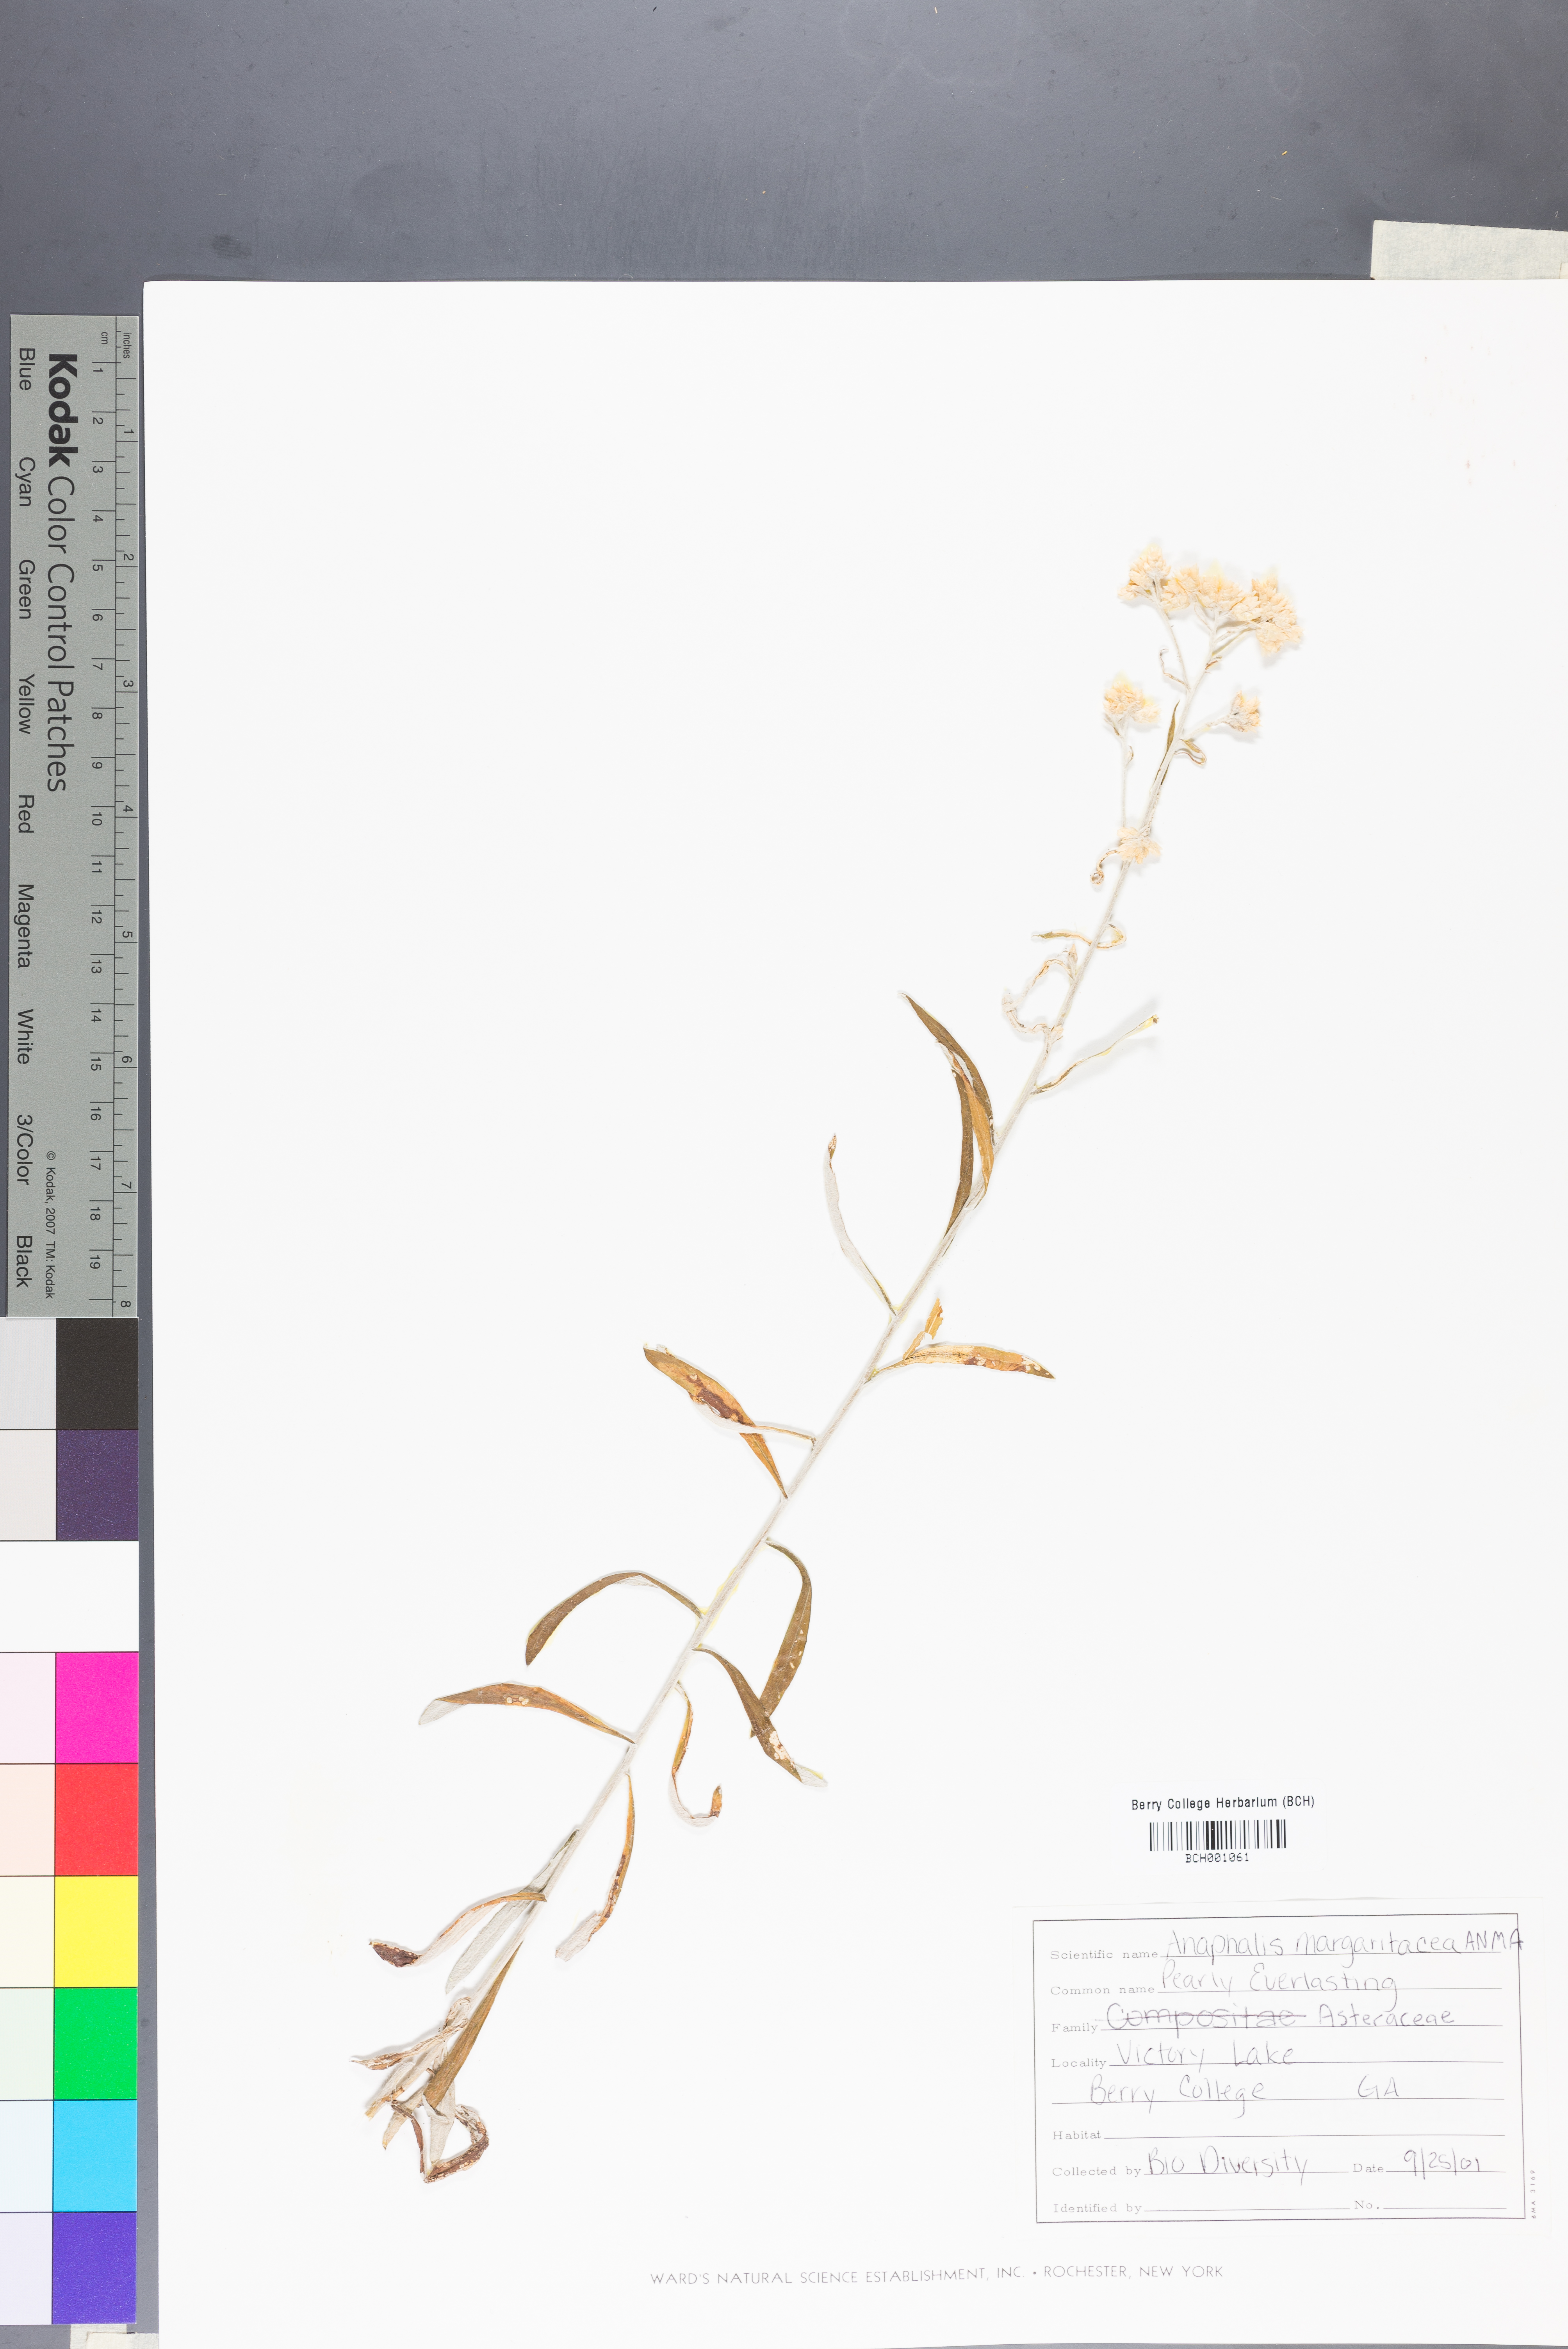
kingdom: Plantae
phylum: Tracheophyta
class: Magnoliopsida
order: Asterales
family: Asteraceae
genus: Anaphalis
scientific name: Anaphalis margaritacea
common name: Pearly everlasting
